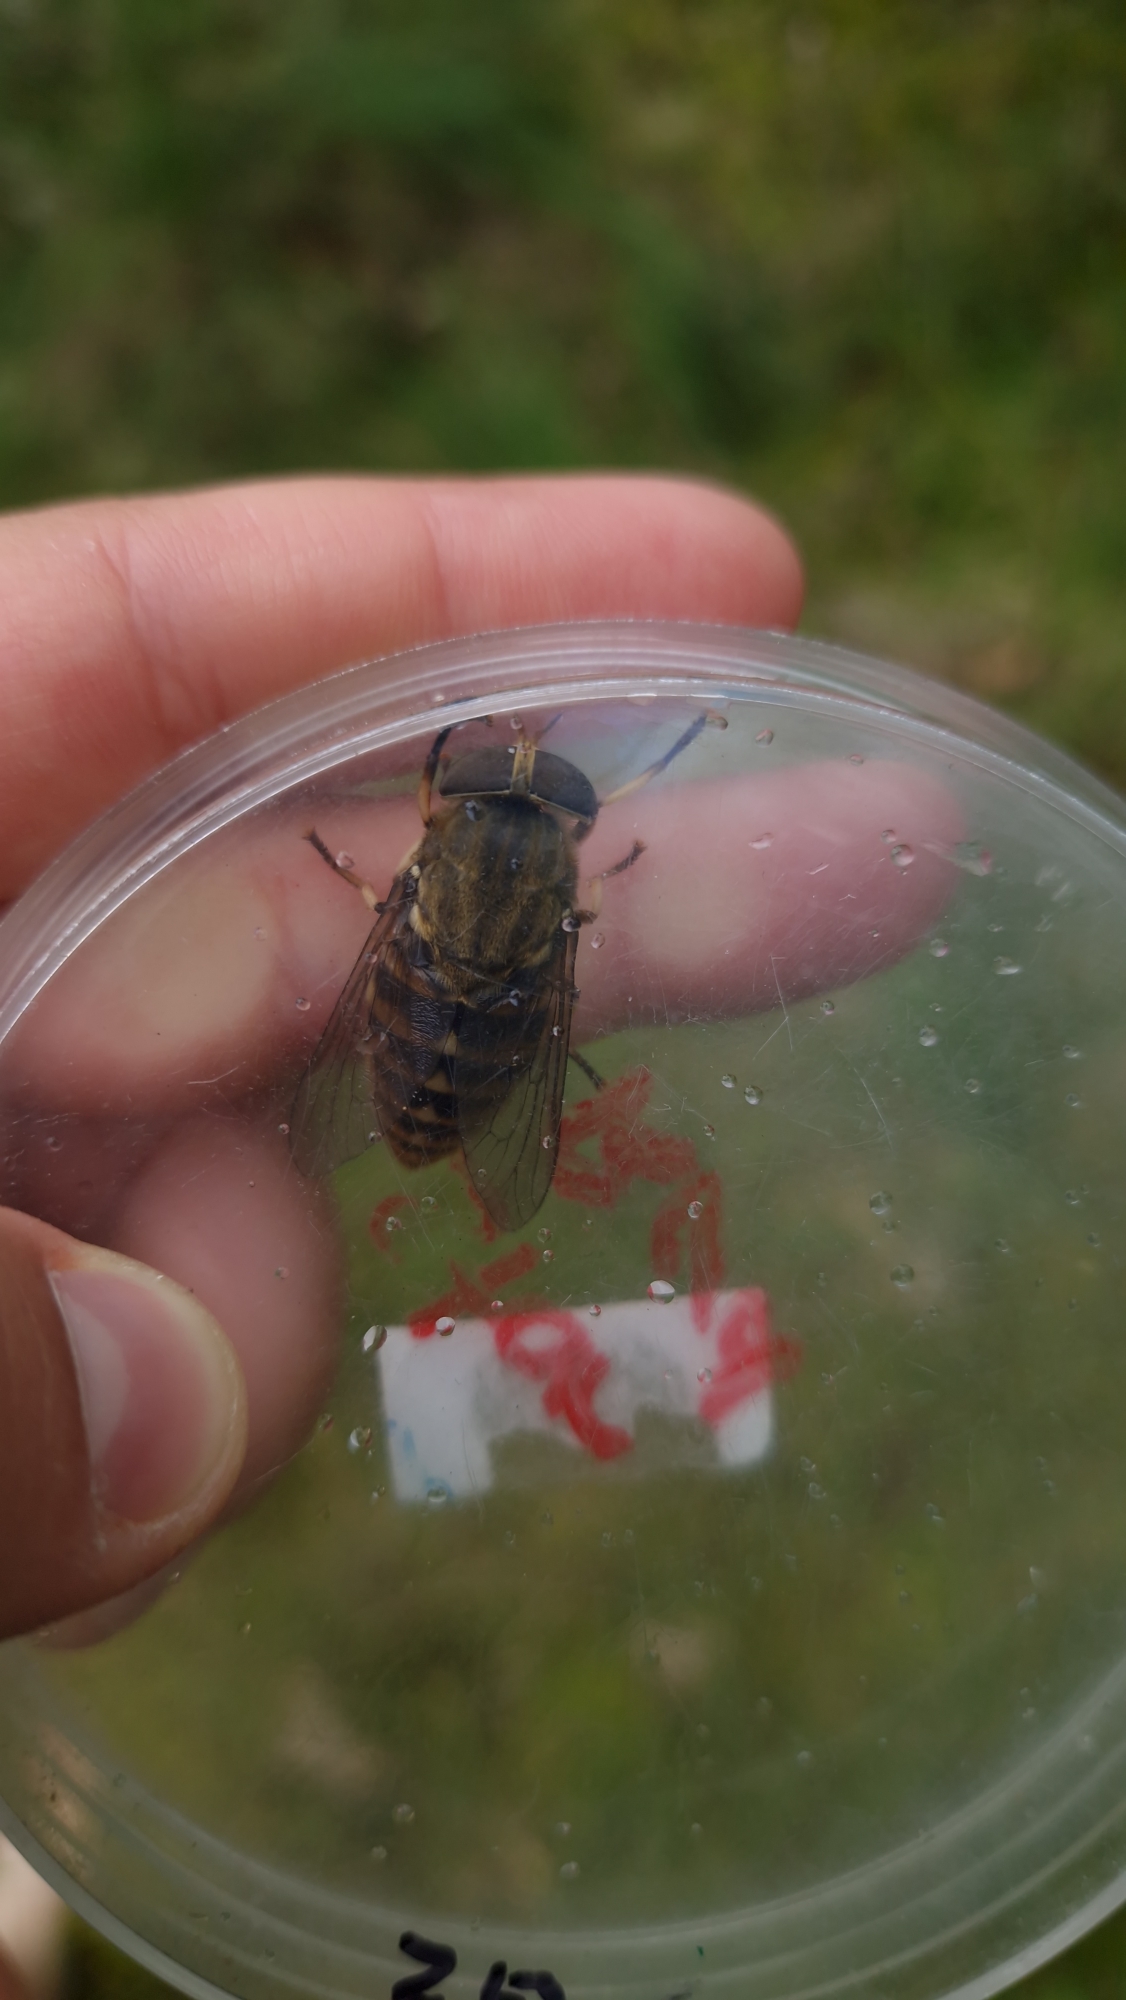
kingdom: Animalia
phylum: Arthropoda
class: Insecta
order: Diptera
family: Tabanidae
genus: Tabanus
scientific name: Tabanus sudeticus
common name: Hesteklæg
